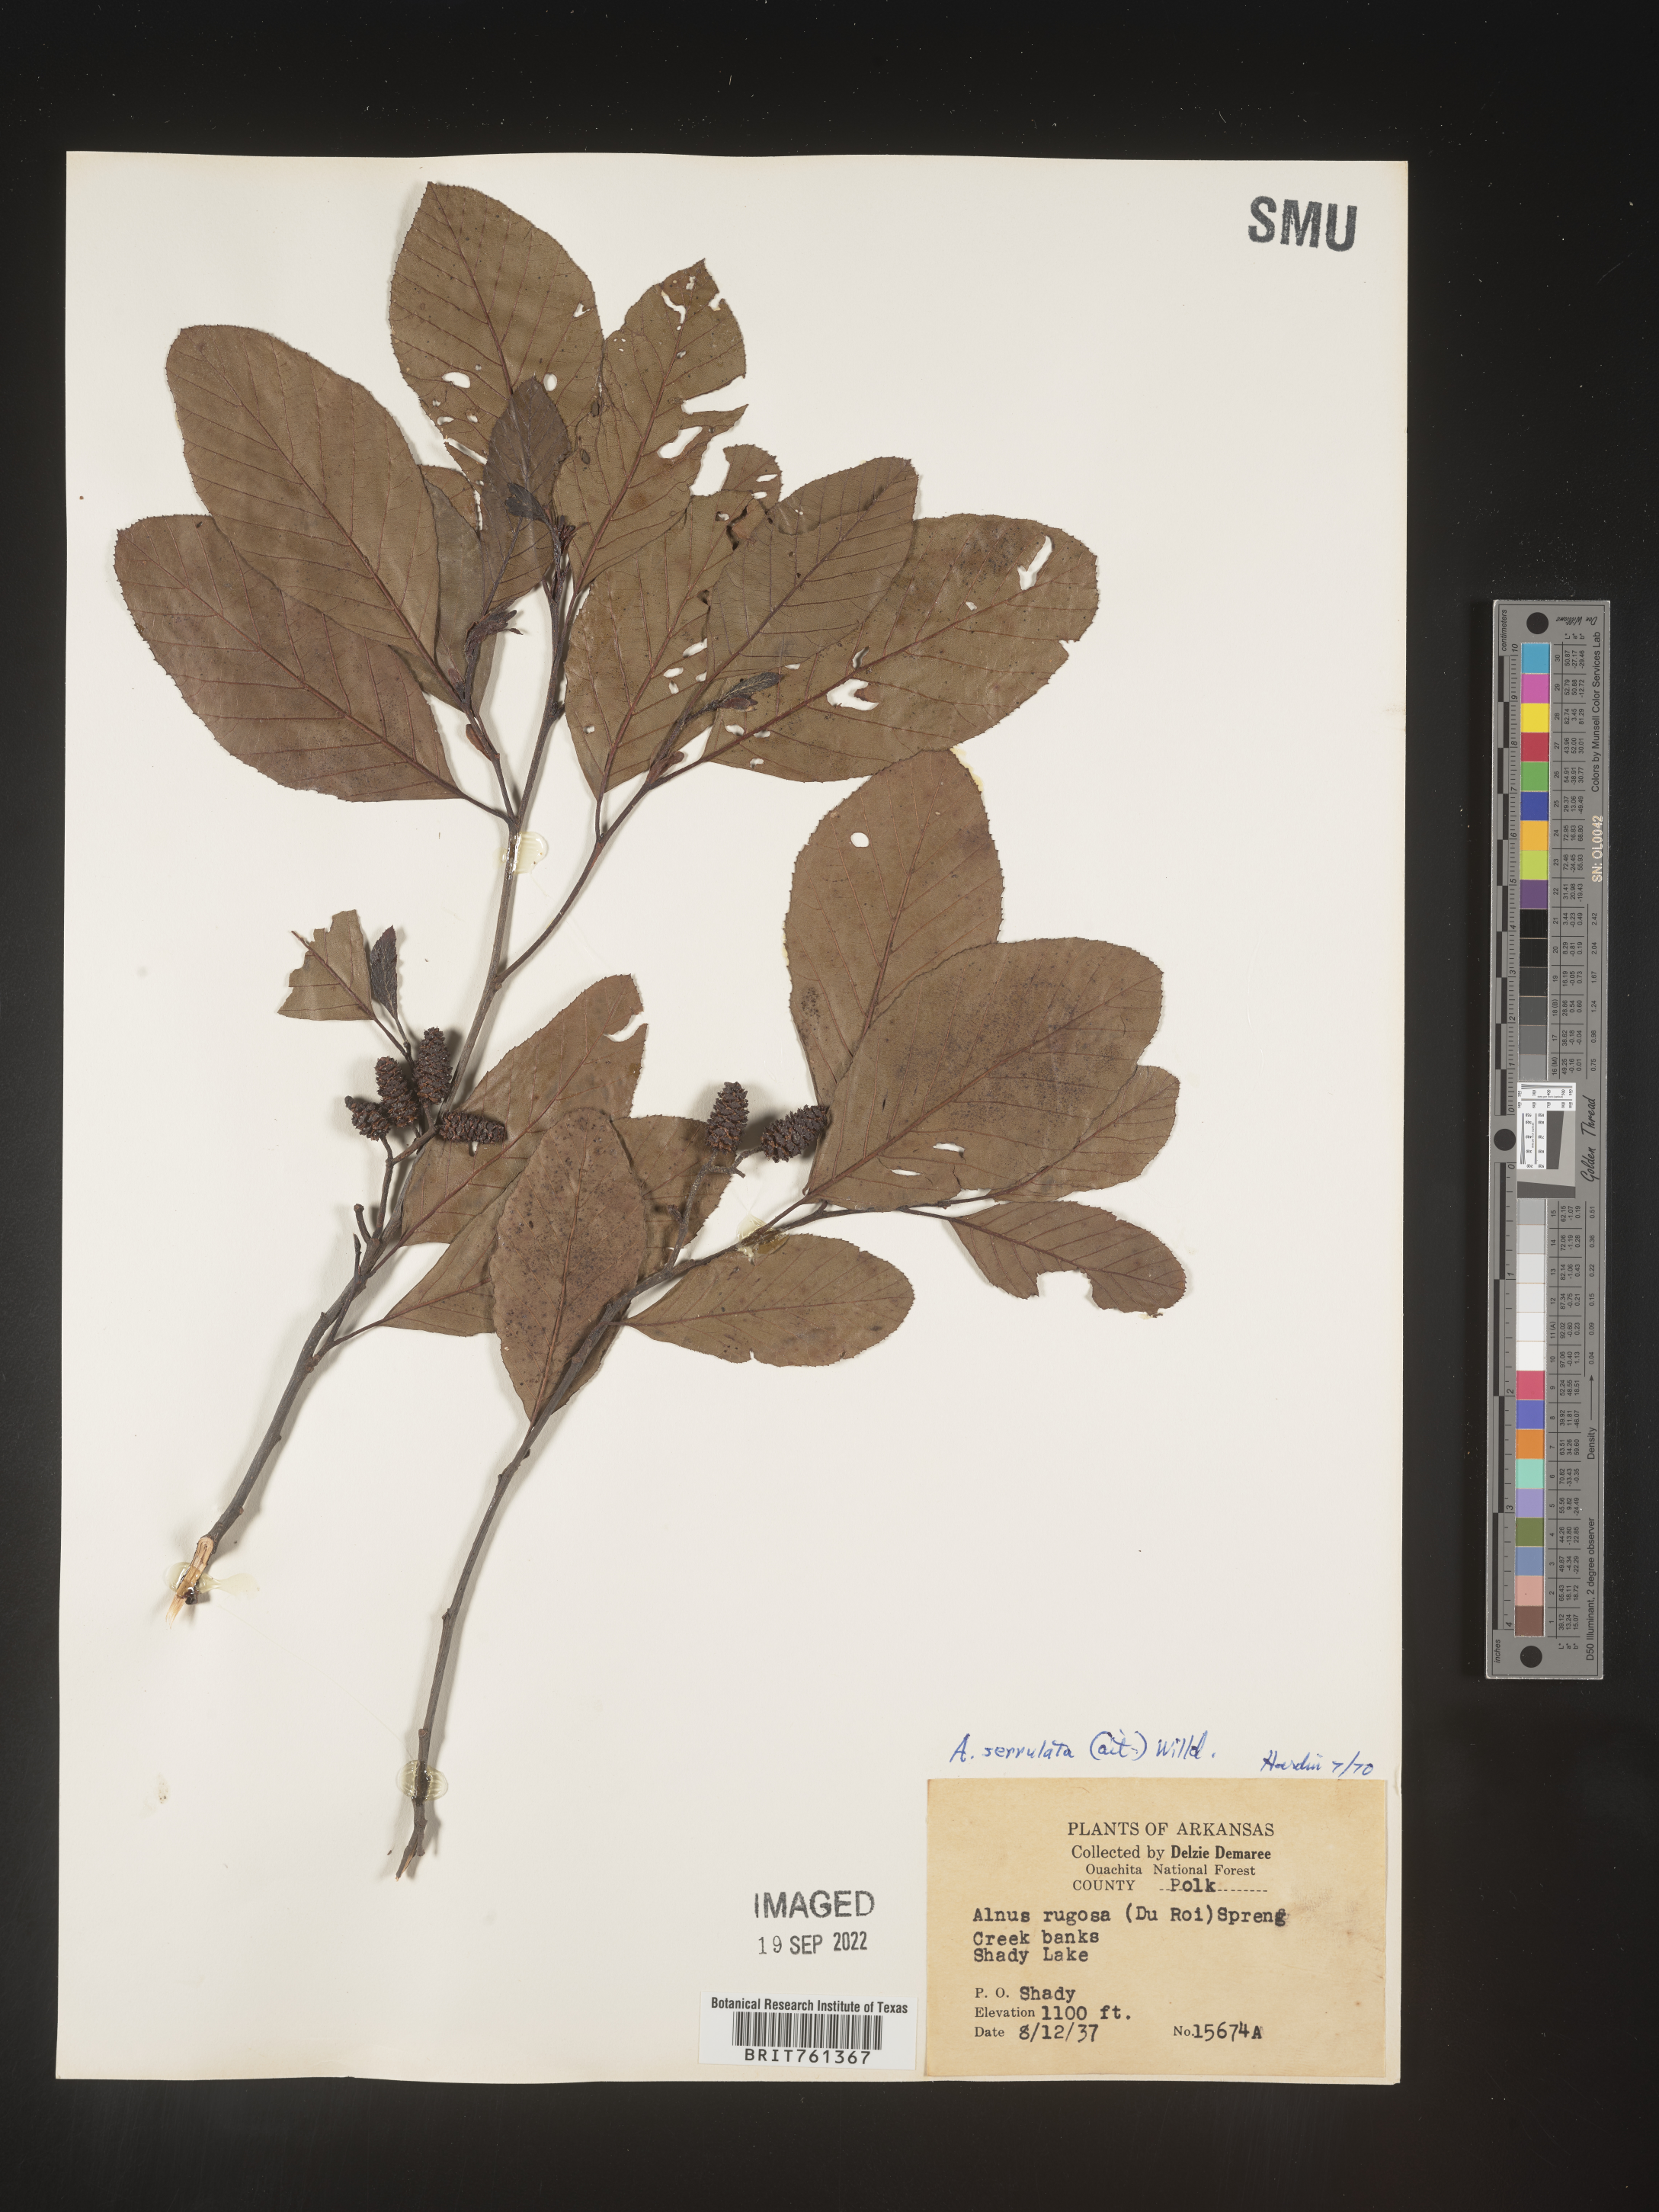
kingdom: Plantae
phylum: Tracheophyta
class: Magnoliopsida
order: Fagales
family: Betulaceae
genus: Alnus
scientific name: Alnus serrulata
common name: Hazel alder
